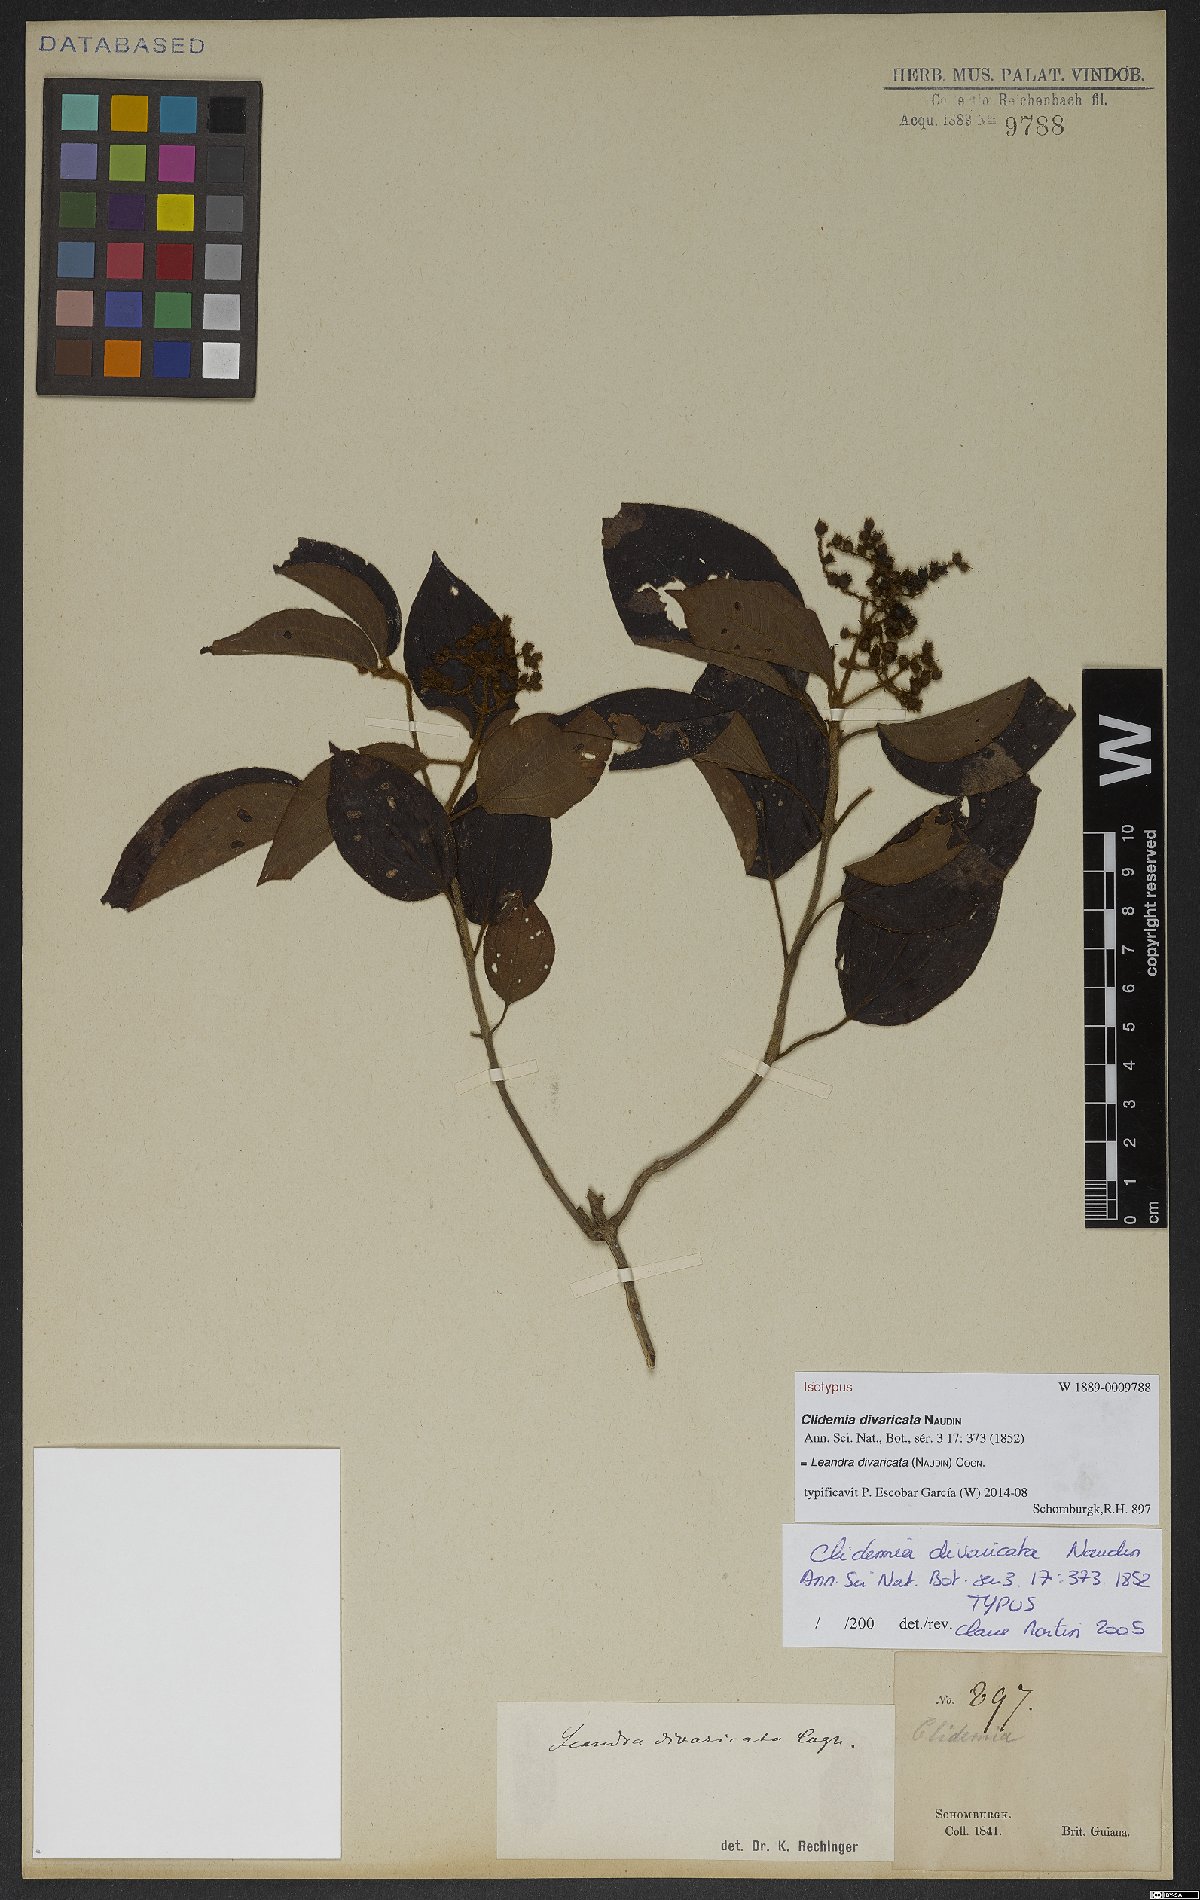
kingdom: Plantae
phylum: Tracheophyta
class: Magnoliopsida
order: Myrtales
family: Melastomataceae
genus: Miconia
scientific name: Miconia secundivaricata
